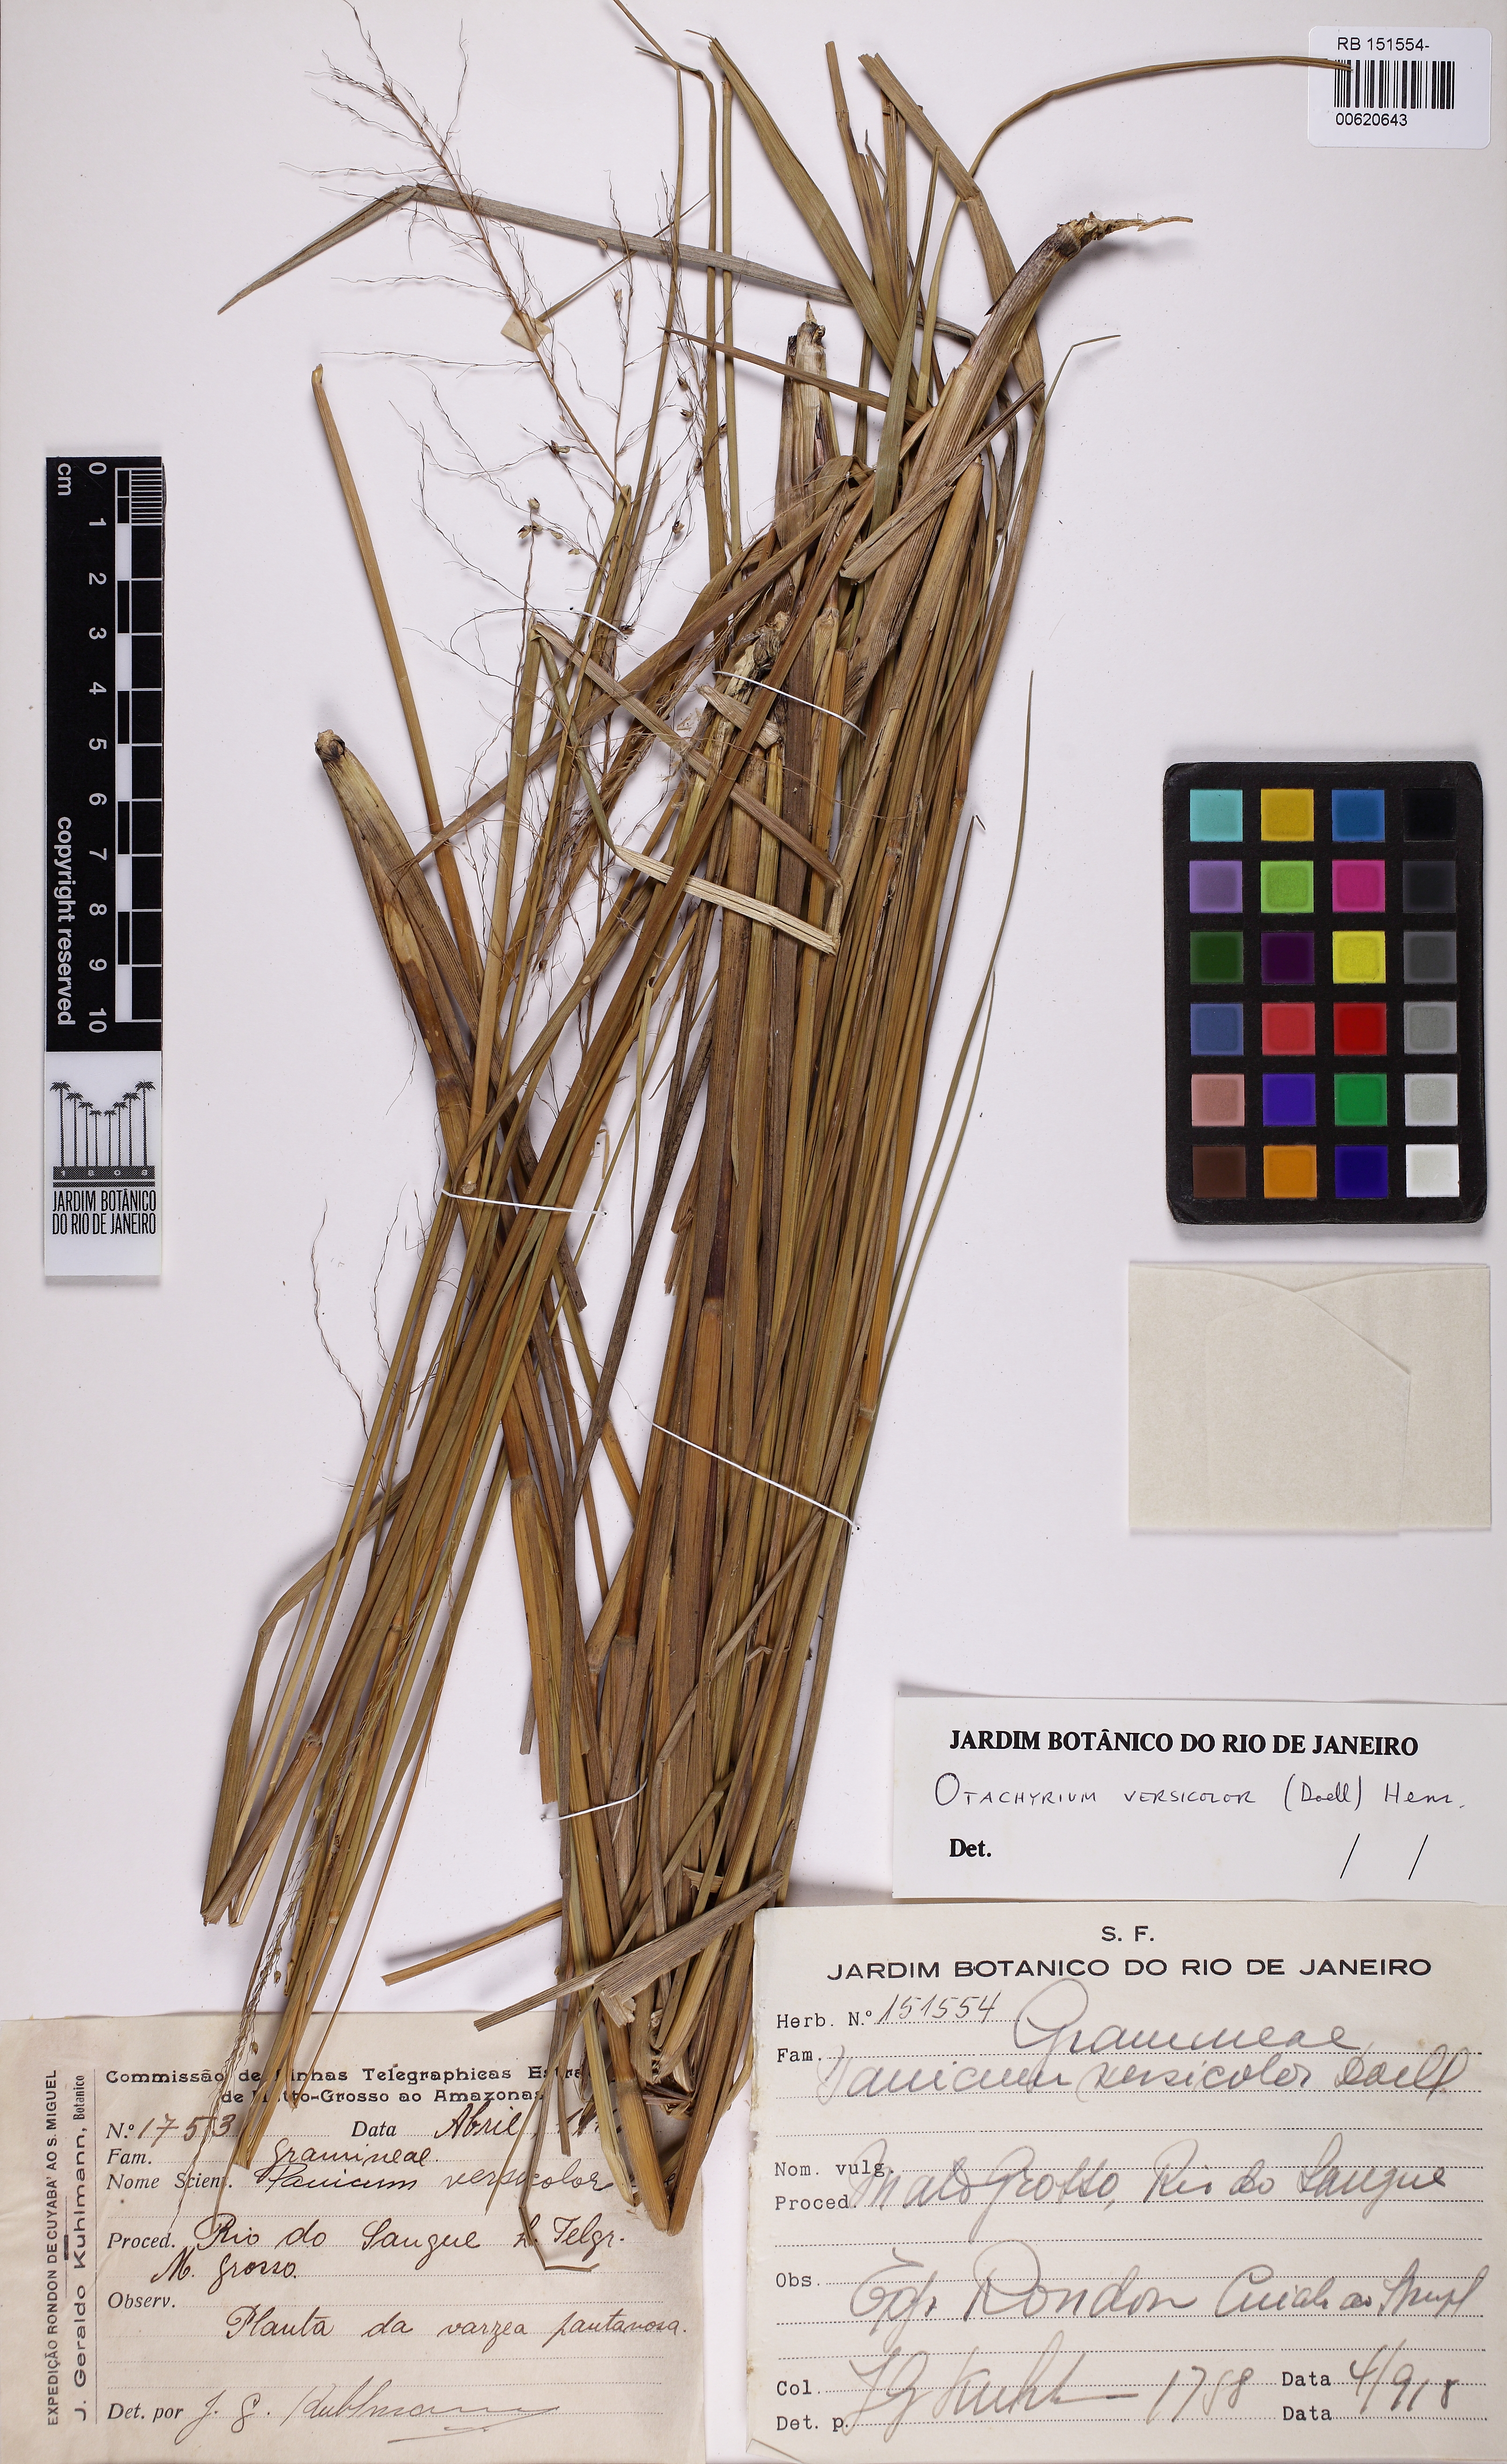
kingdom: Plantae
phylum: Tracheophyta
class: Liliopsida
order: Poales
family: Poaceae
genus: Otachyrium
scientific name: Otachyrium versicolor
